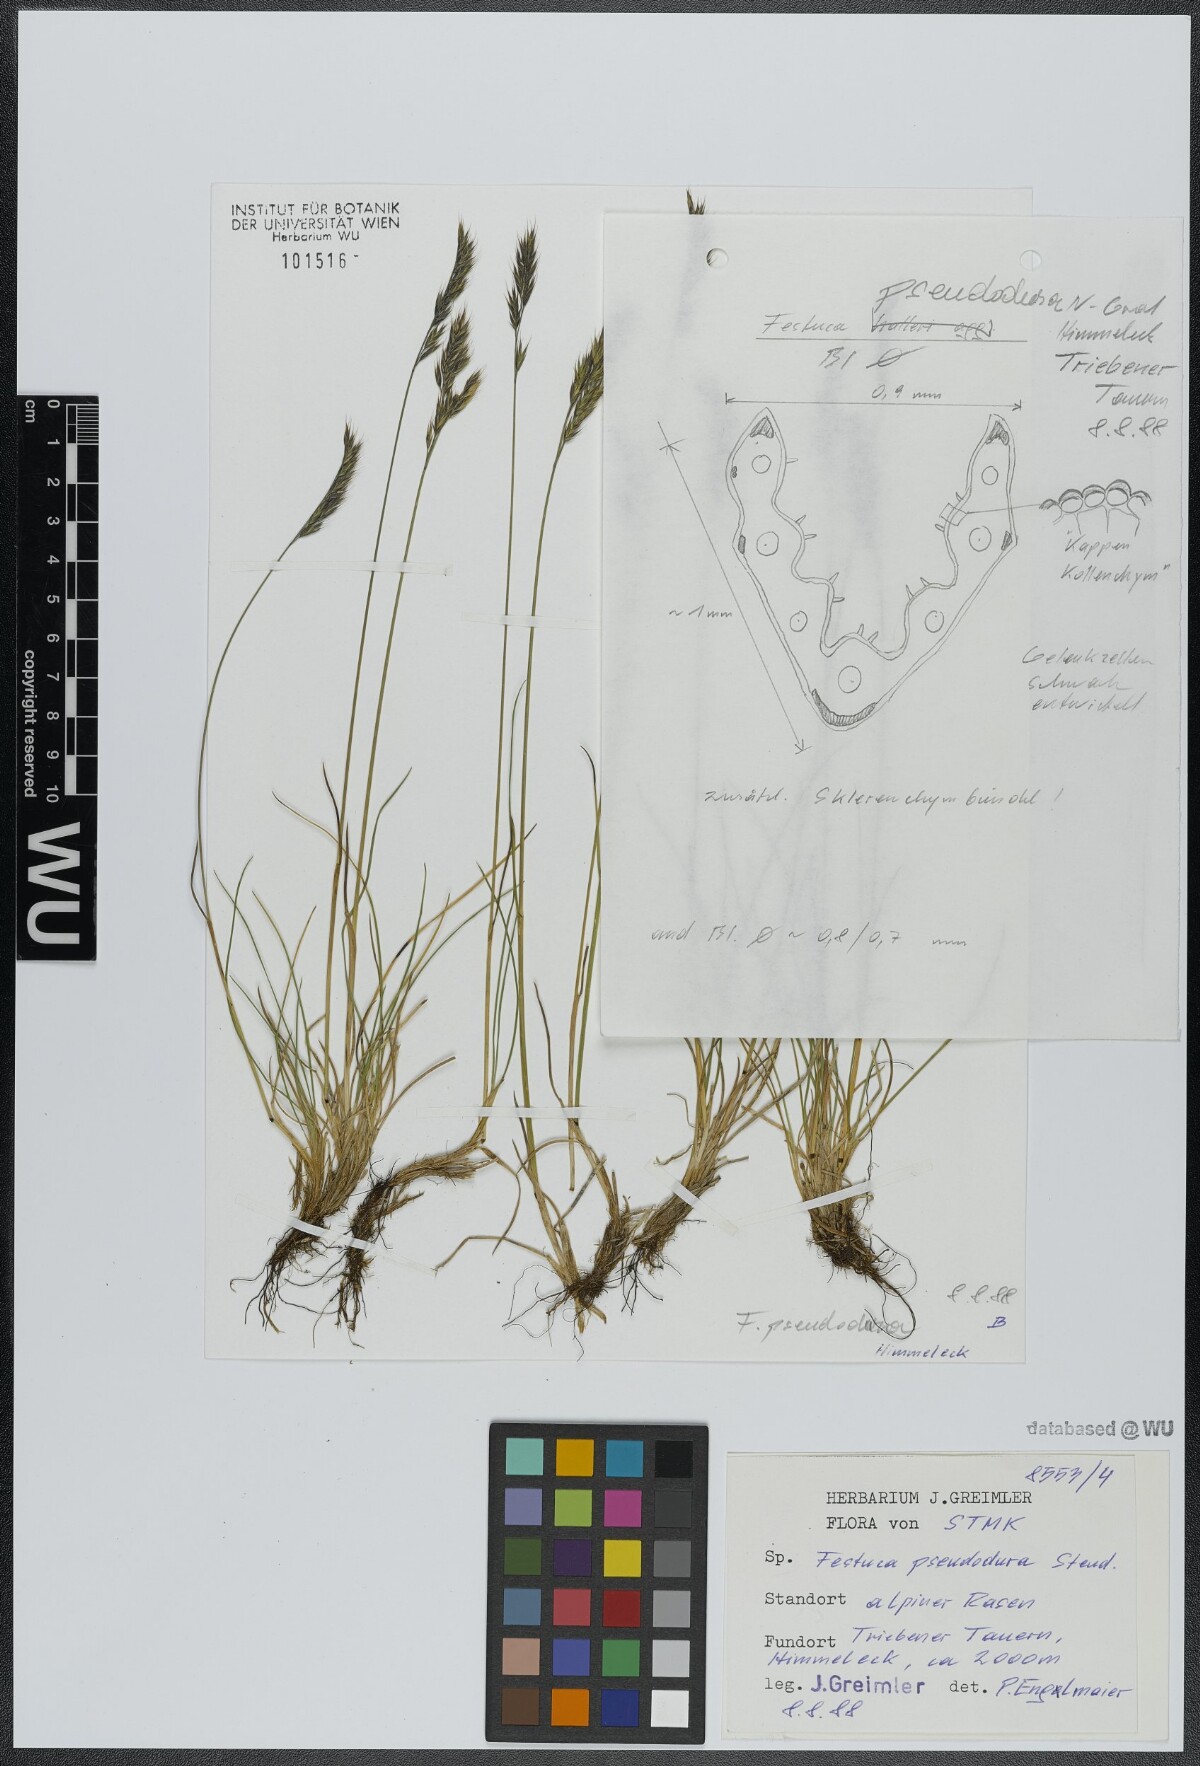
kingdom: Plantae
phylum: Tracheophyta
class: Liliopsida
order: Poales
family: Poaceae
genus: Festuca
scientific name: Festuca pseudodura
